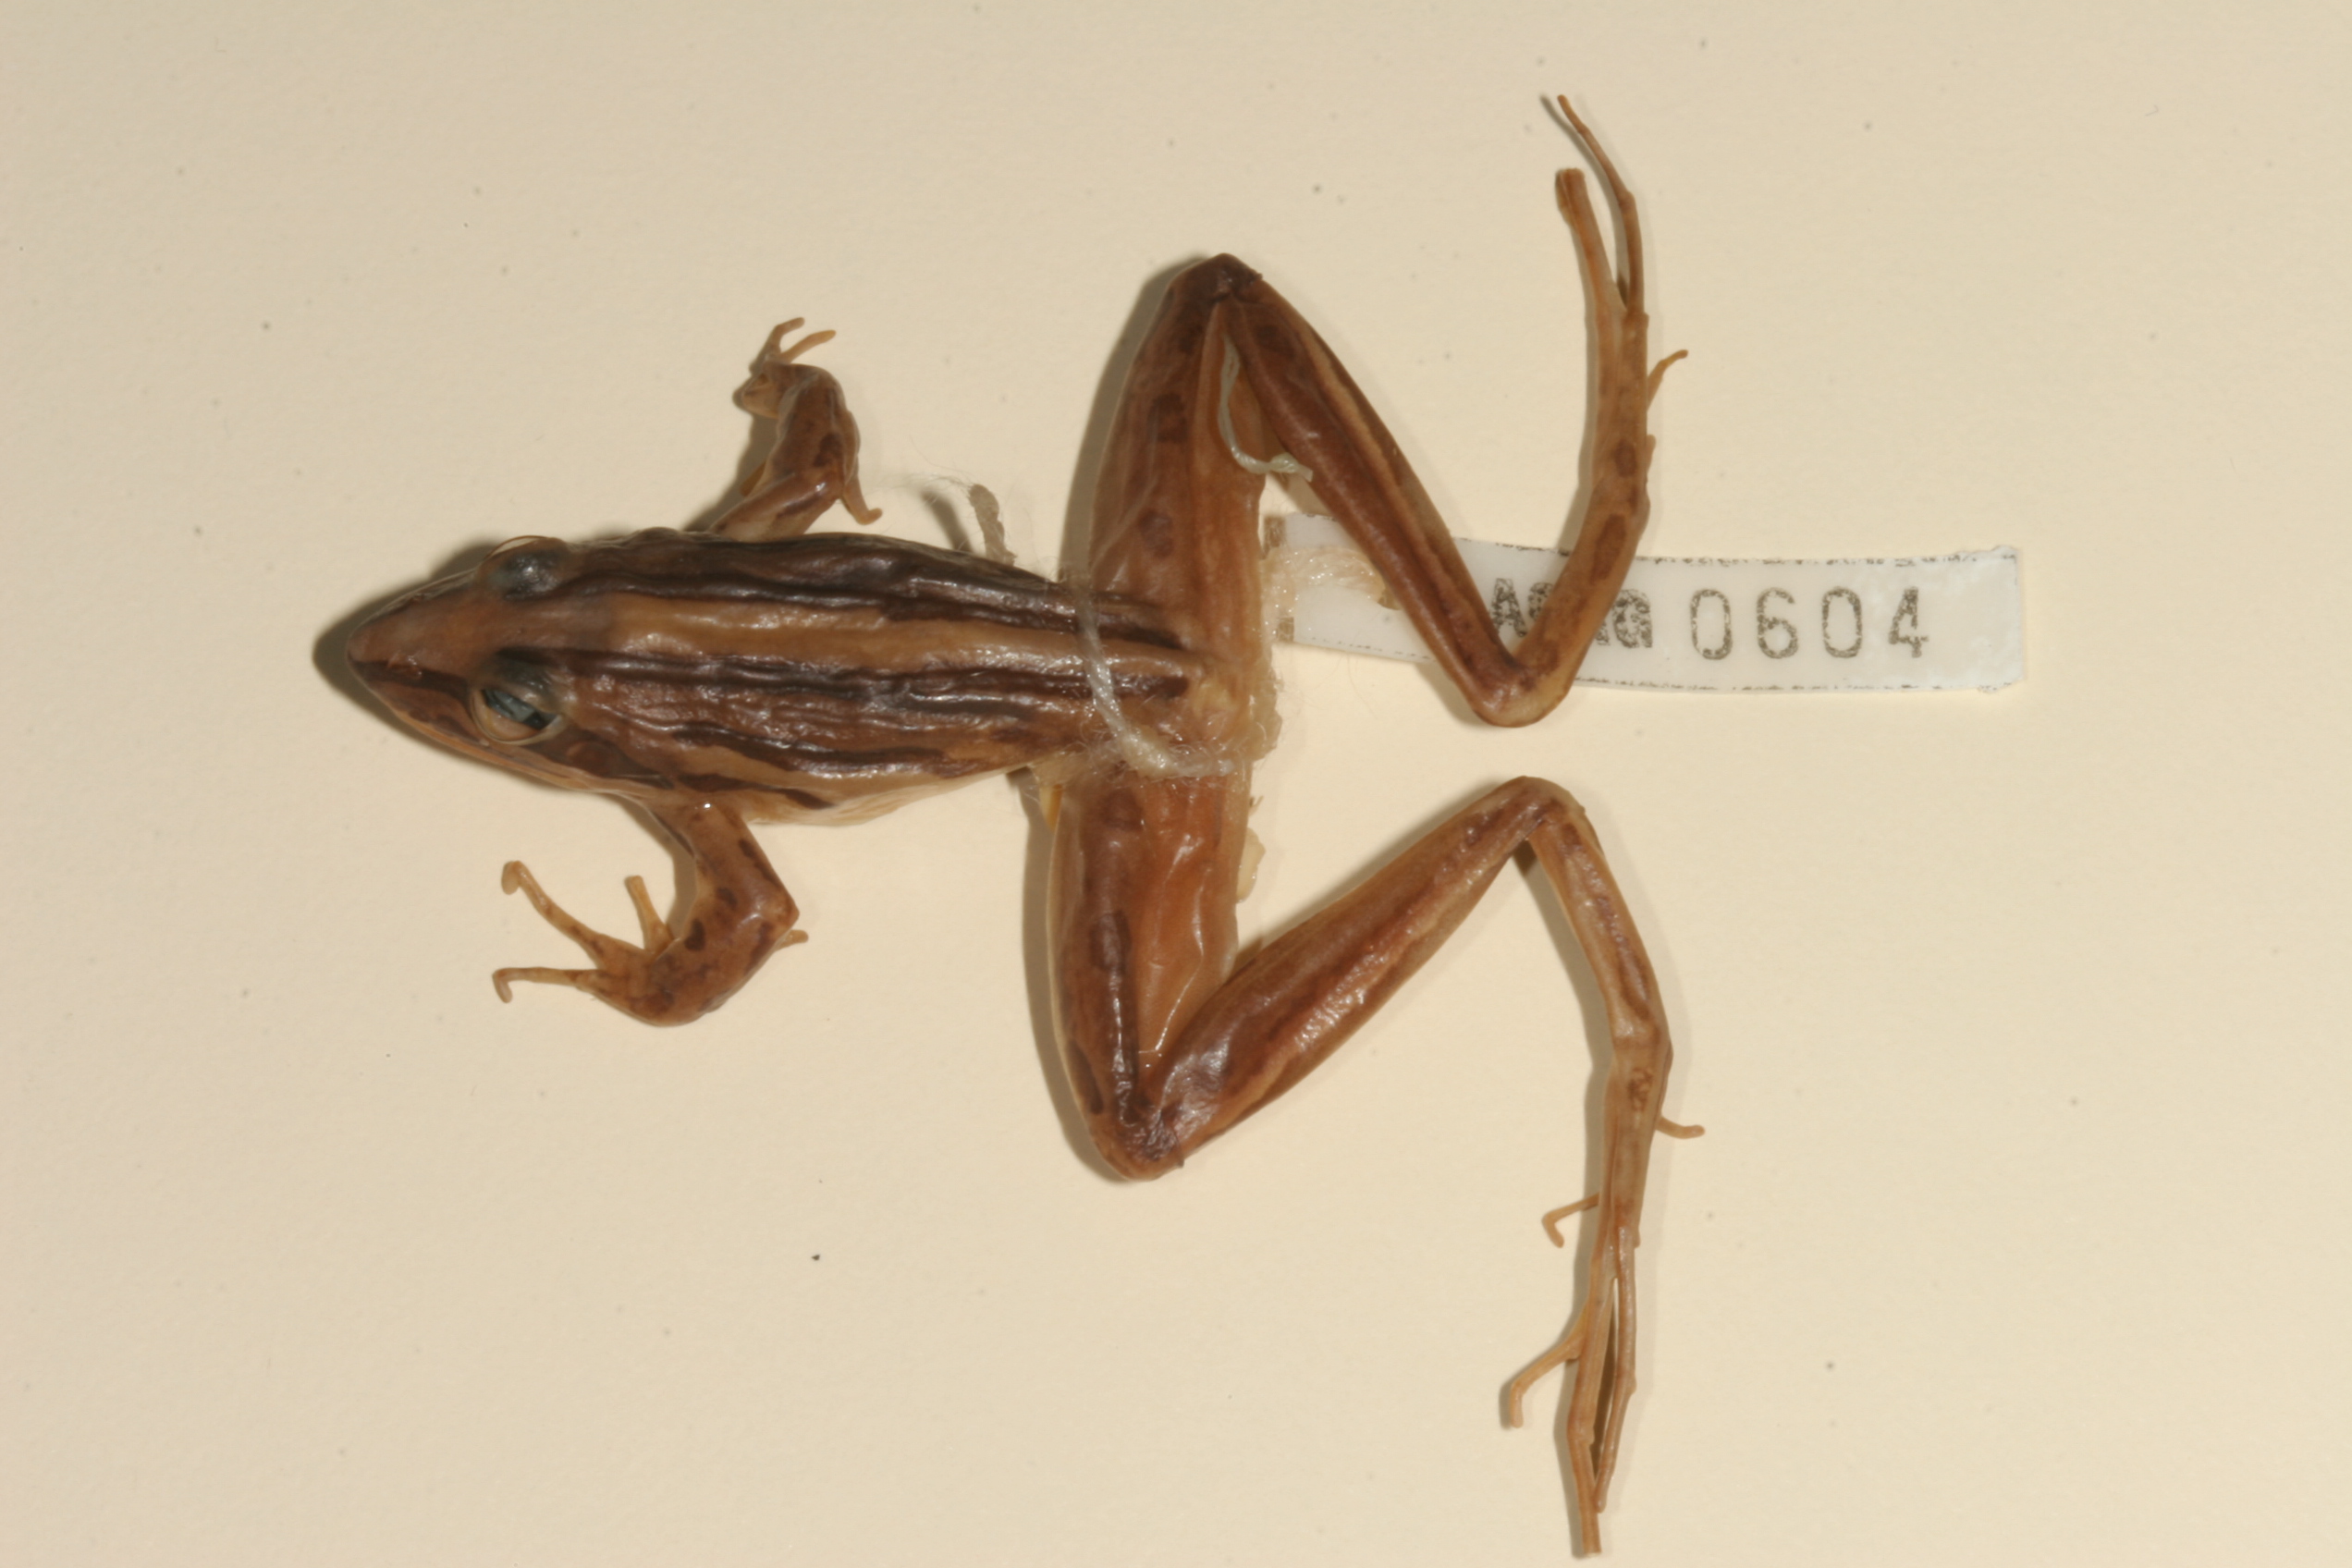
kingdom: Animalia
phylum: Chordata
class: Amphibia
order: Anura
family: Pyxicephalidae
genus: Strongylopus
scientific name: Strongylopus fasciatus
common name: Striped stream frog
